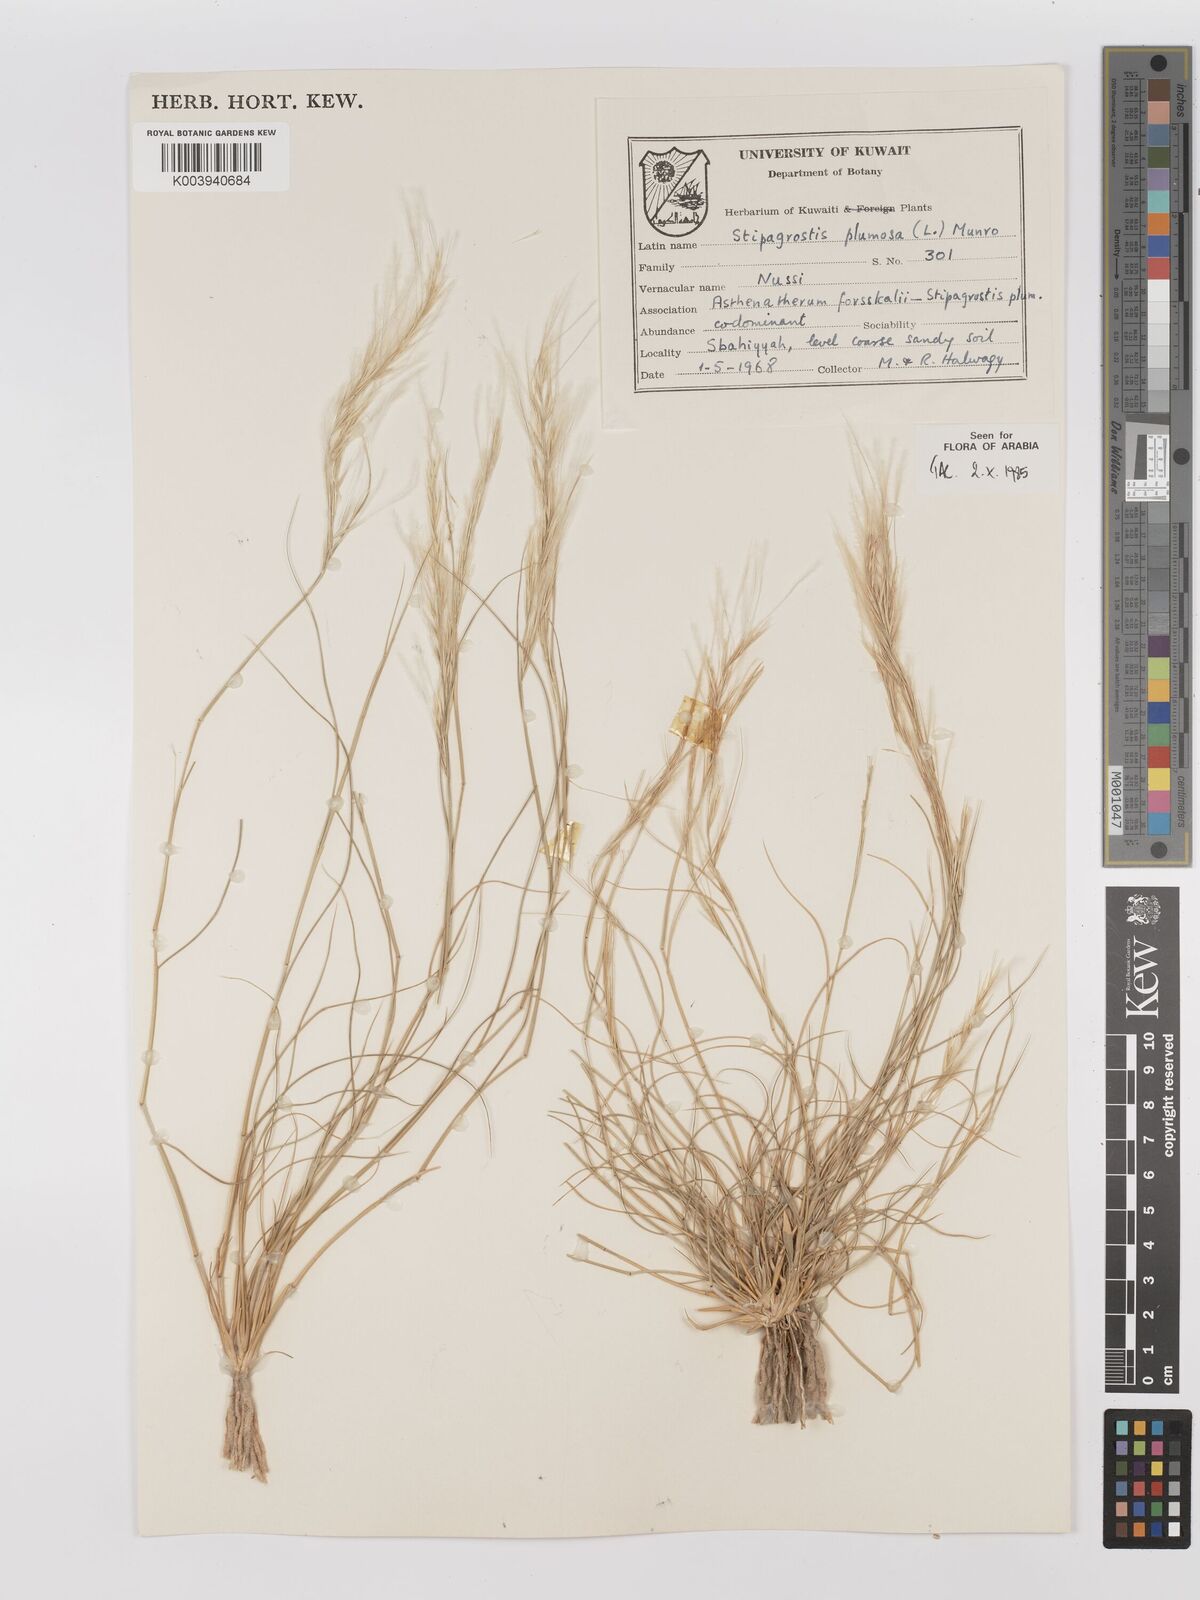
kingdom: Plantae
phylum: Tracheophyta
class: Liliopsida
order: Poales
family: Poaceae
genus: Stipagrostis
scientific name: Stipagrostis plumosa
